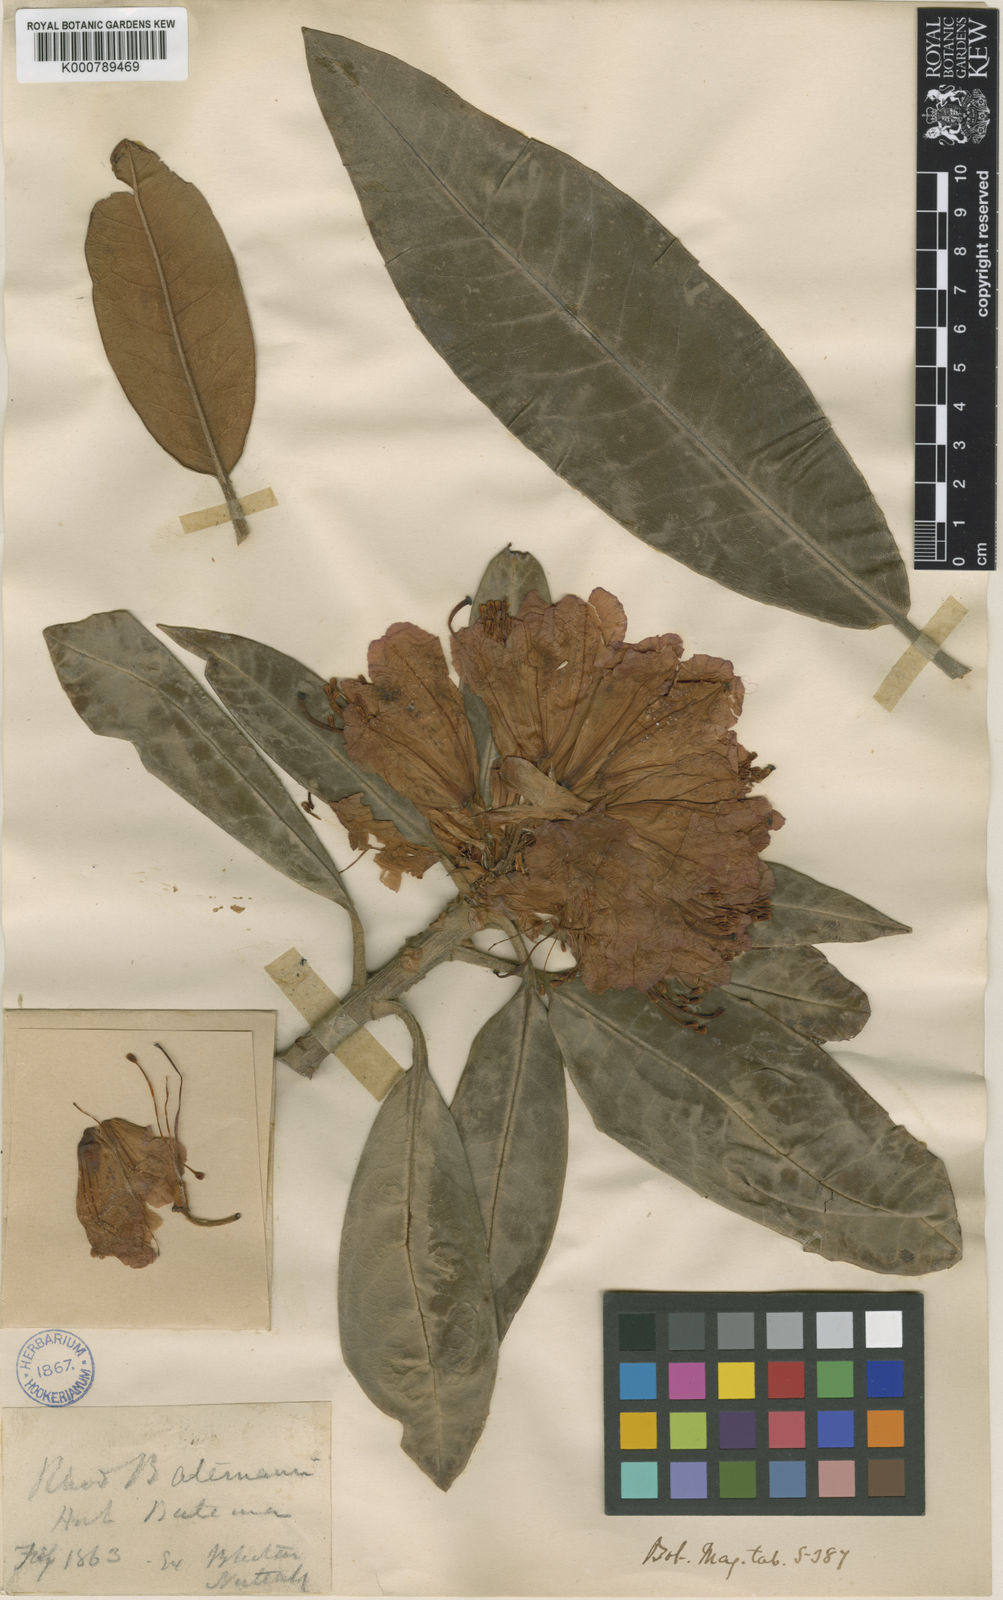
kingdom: Plantae
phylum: Tracheophyta
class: Magnoliopsida
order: Ericales
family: Ericaceae
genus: Rhododendron
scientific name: Rhododendron
